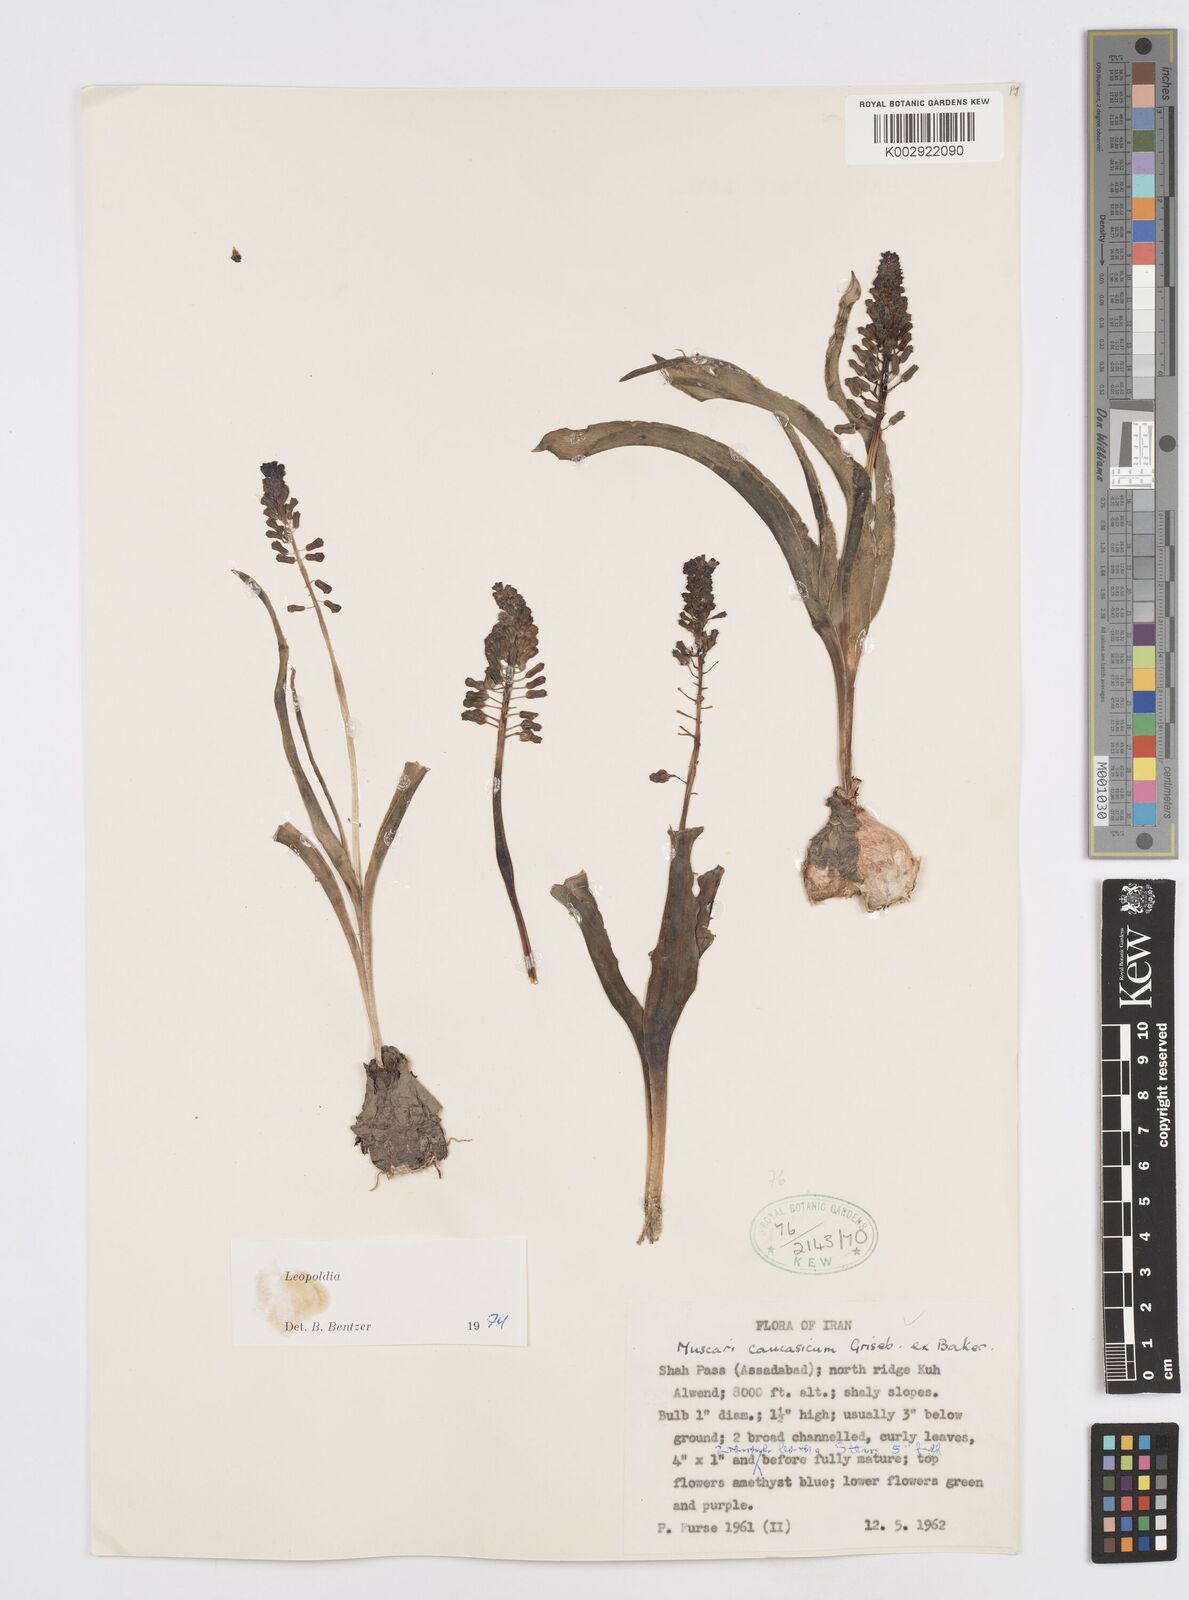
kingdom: Plantae
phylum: Tracheophyta
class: Liliopsida
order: Asparagales
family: Asparagaceae
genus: Muscari
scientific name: Muscari caucasicum
